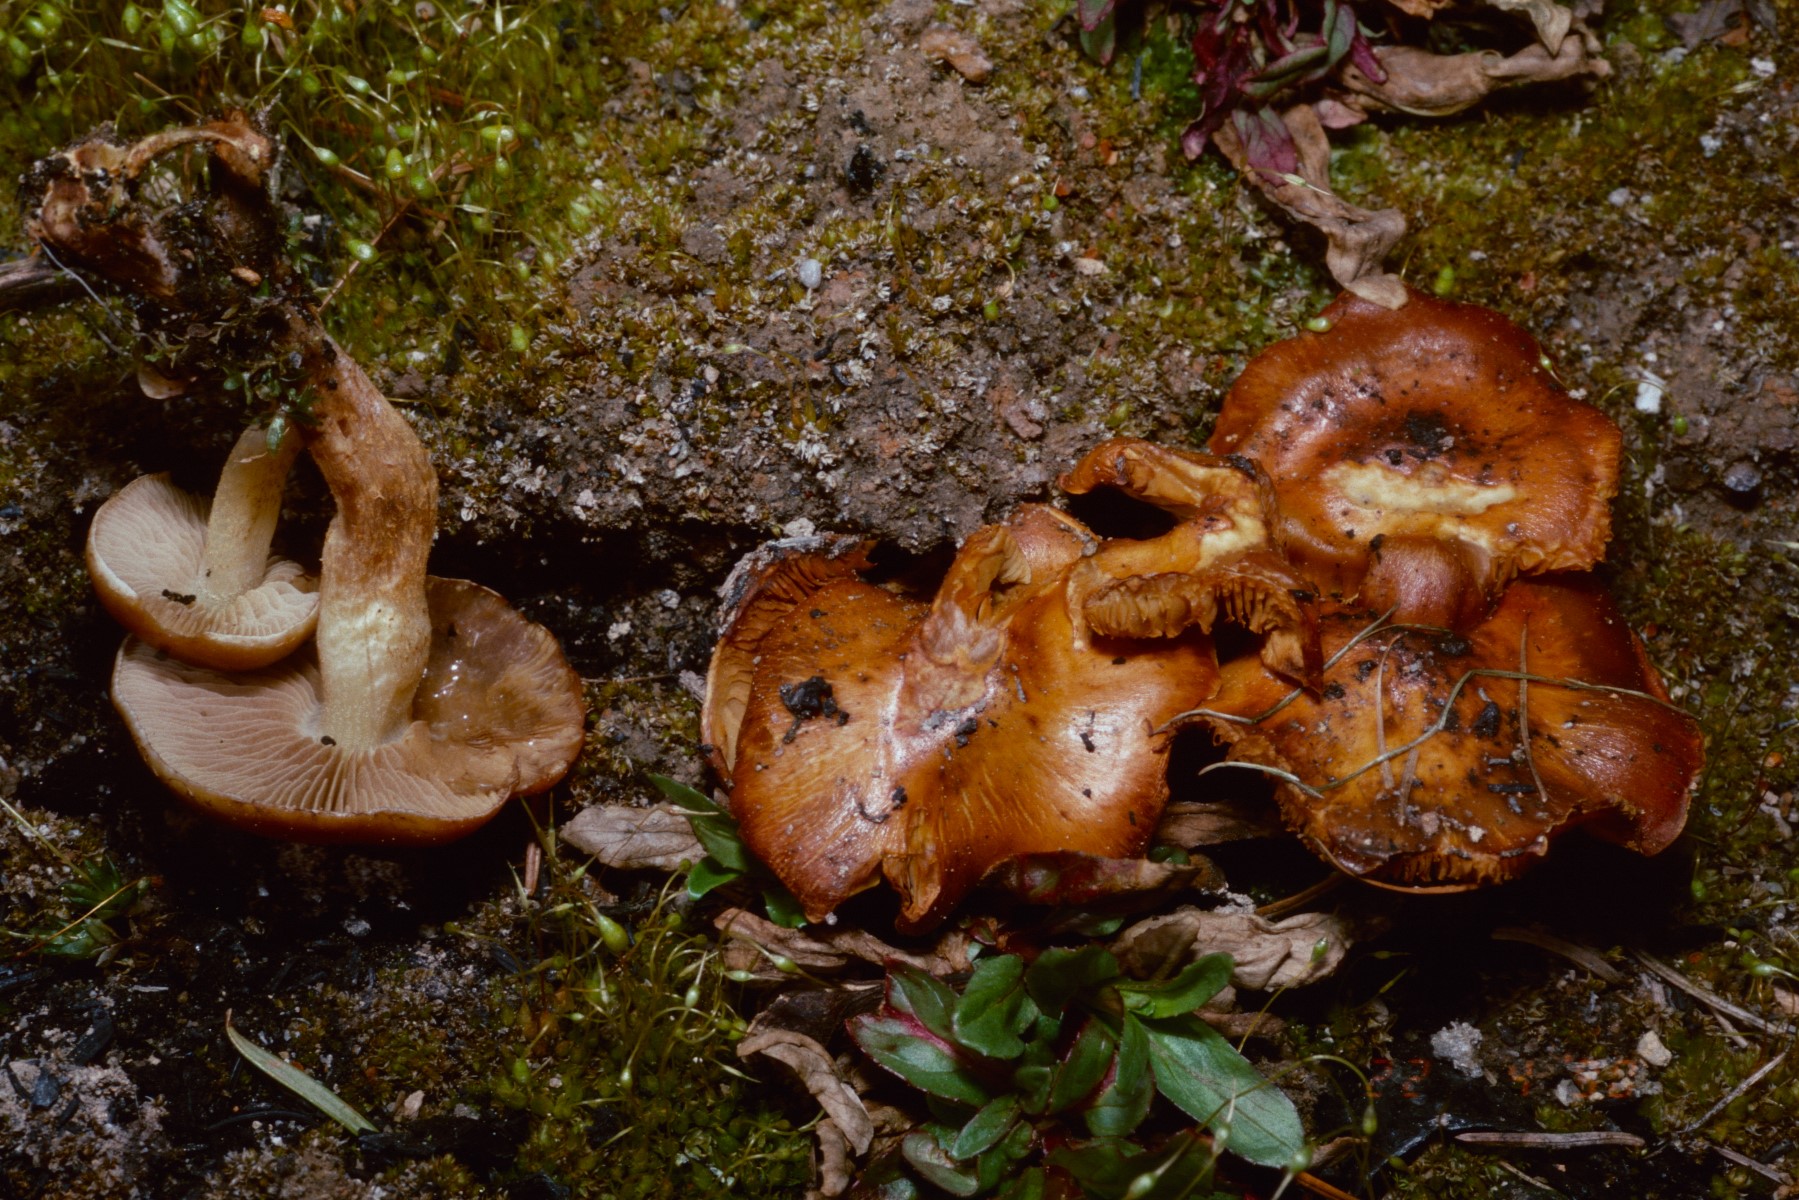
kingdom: Fungi
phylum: Basidiomycota
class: Agaricomycetes
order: Agaricales
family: Strophariaceae
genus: Pholiota
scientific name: Pholiota carbonaria
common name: kul-skælhat
